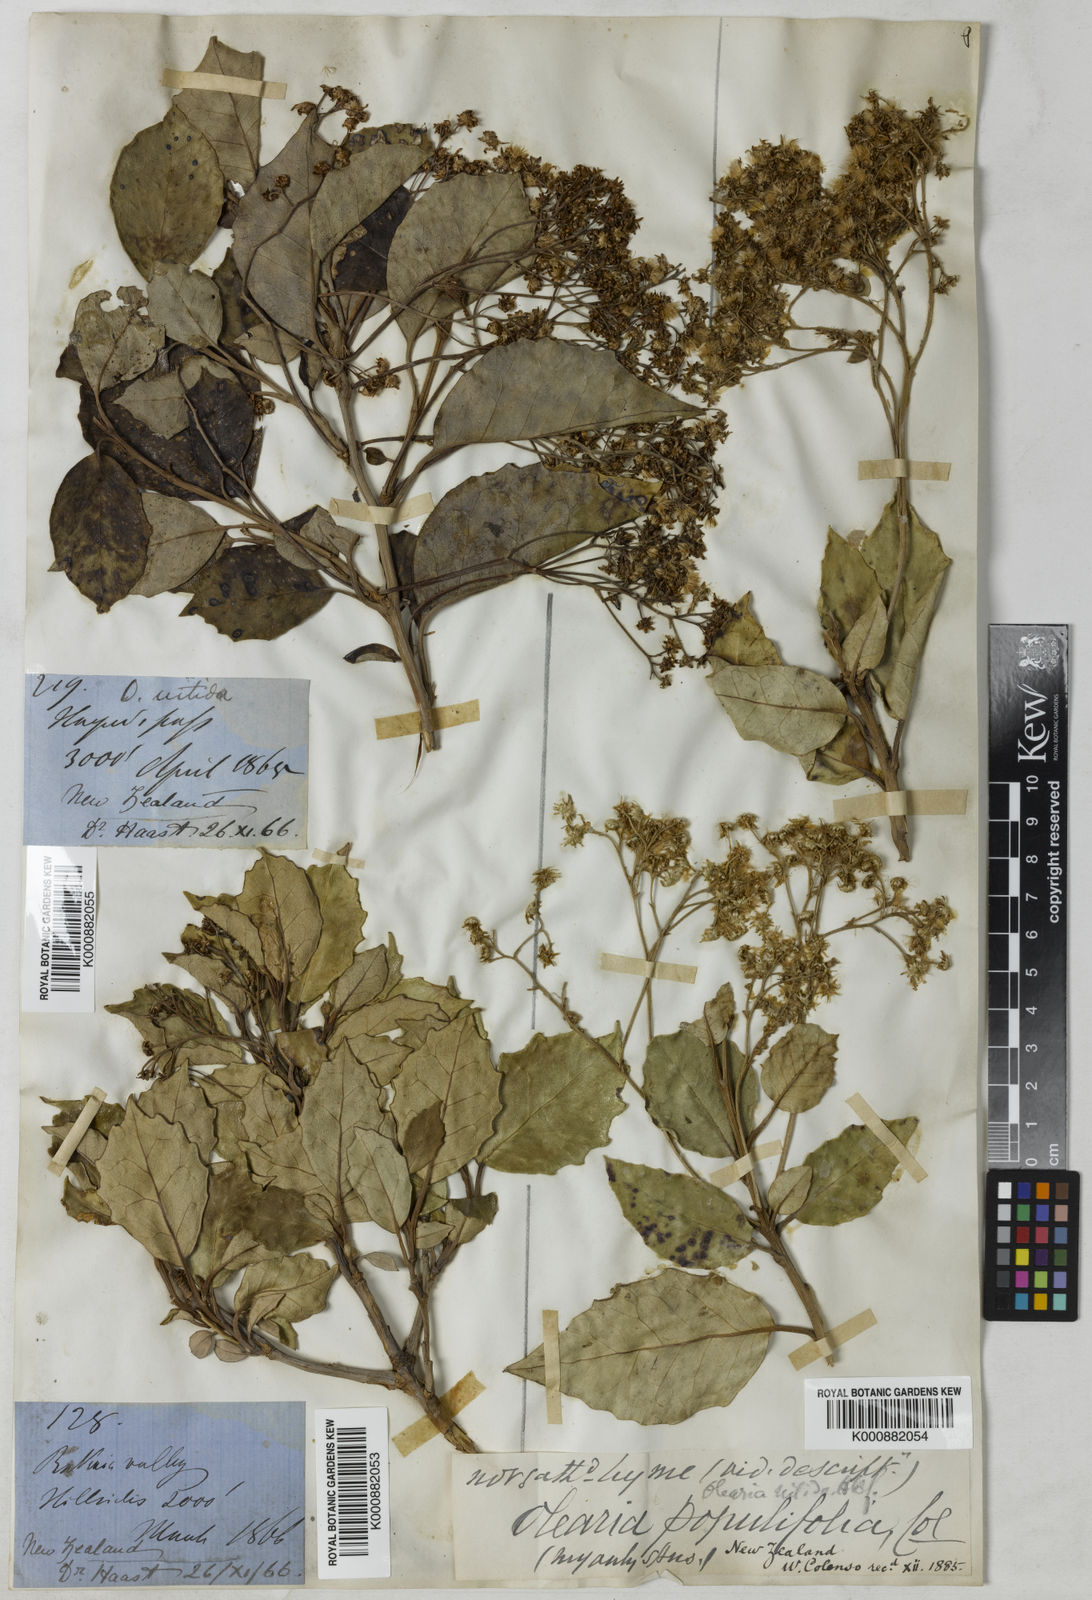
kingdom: Plantae
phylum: Tracheophyta
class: Magnoliopsida
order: Asterales
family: Asteraceae
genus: Olearia
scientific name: Olearia arborescens
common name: Glossy tree daisy
